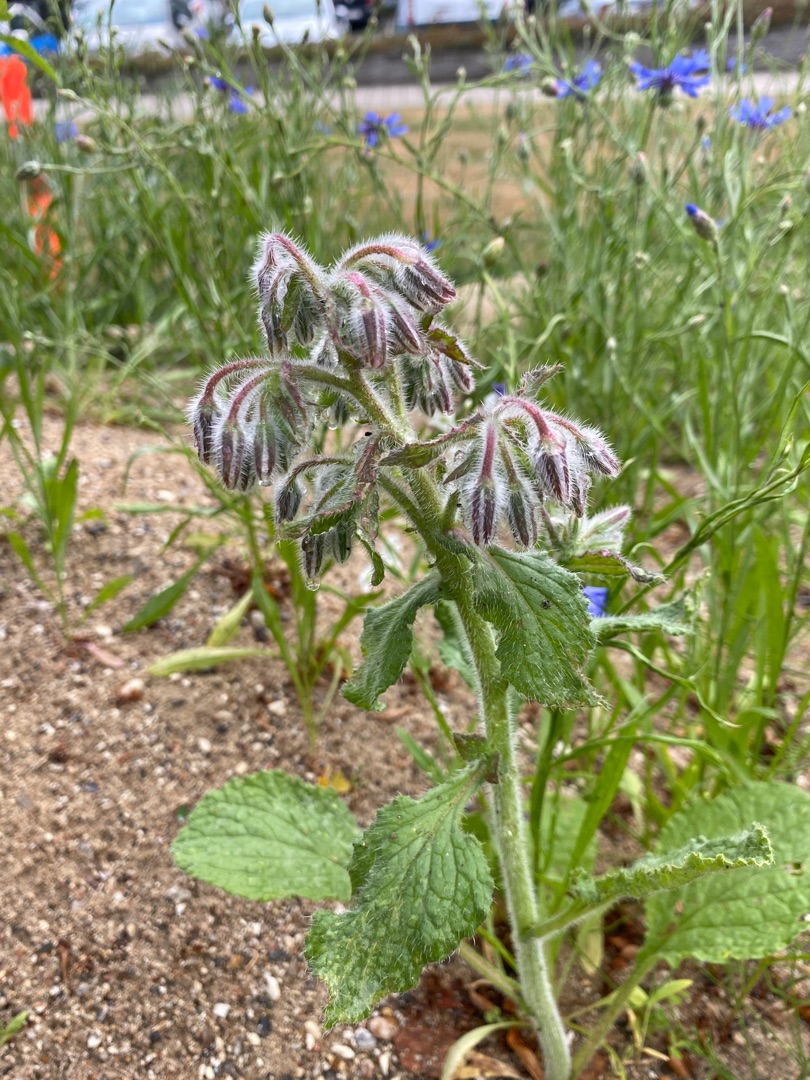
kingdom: Plantae
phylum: Tracheophyta
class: Magnoliopsida
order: Boraginales
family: Boraginaceae
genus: Borago
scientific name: Borago officinalis
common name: Hjulkrone
